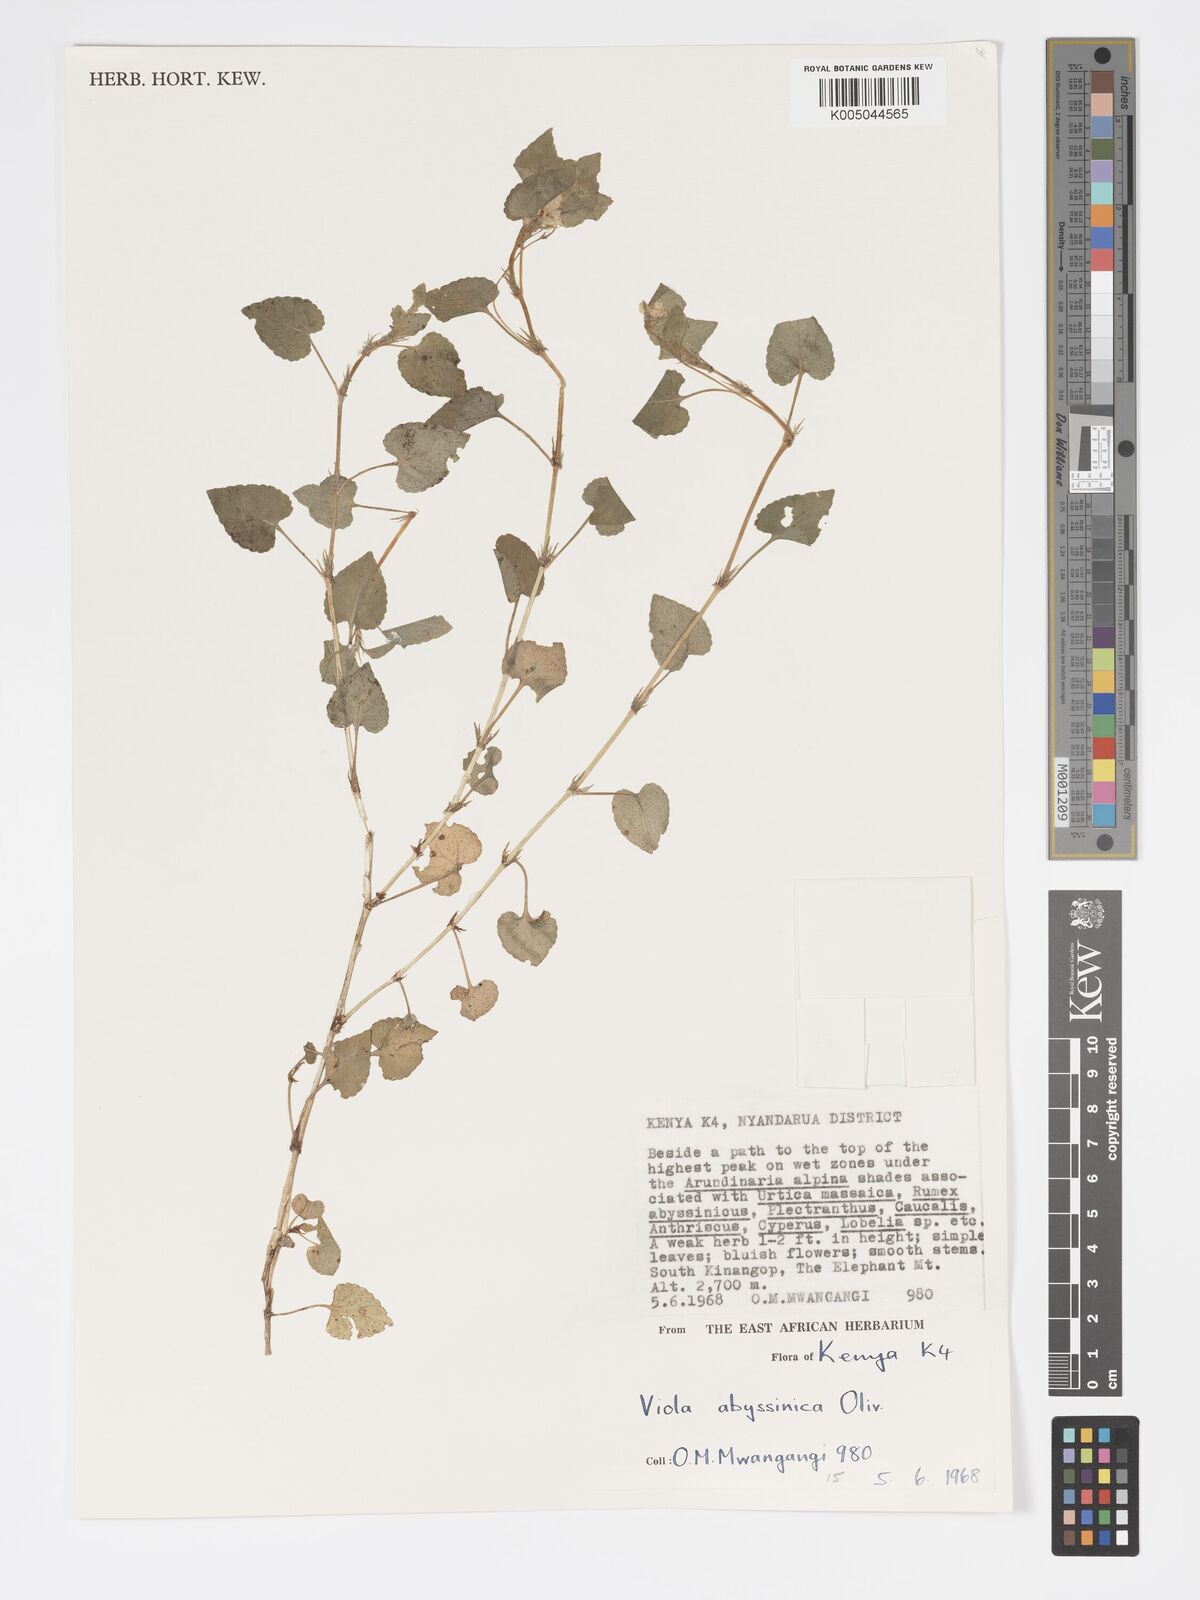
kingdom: Plantae
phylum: Tracheophyta
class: Magnoliopsida
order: Malpighiales
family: Violaceae
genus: Viola
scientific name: Viola abyssinica
